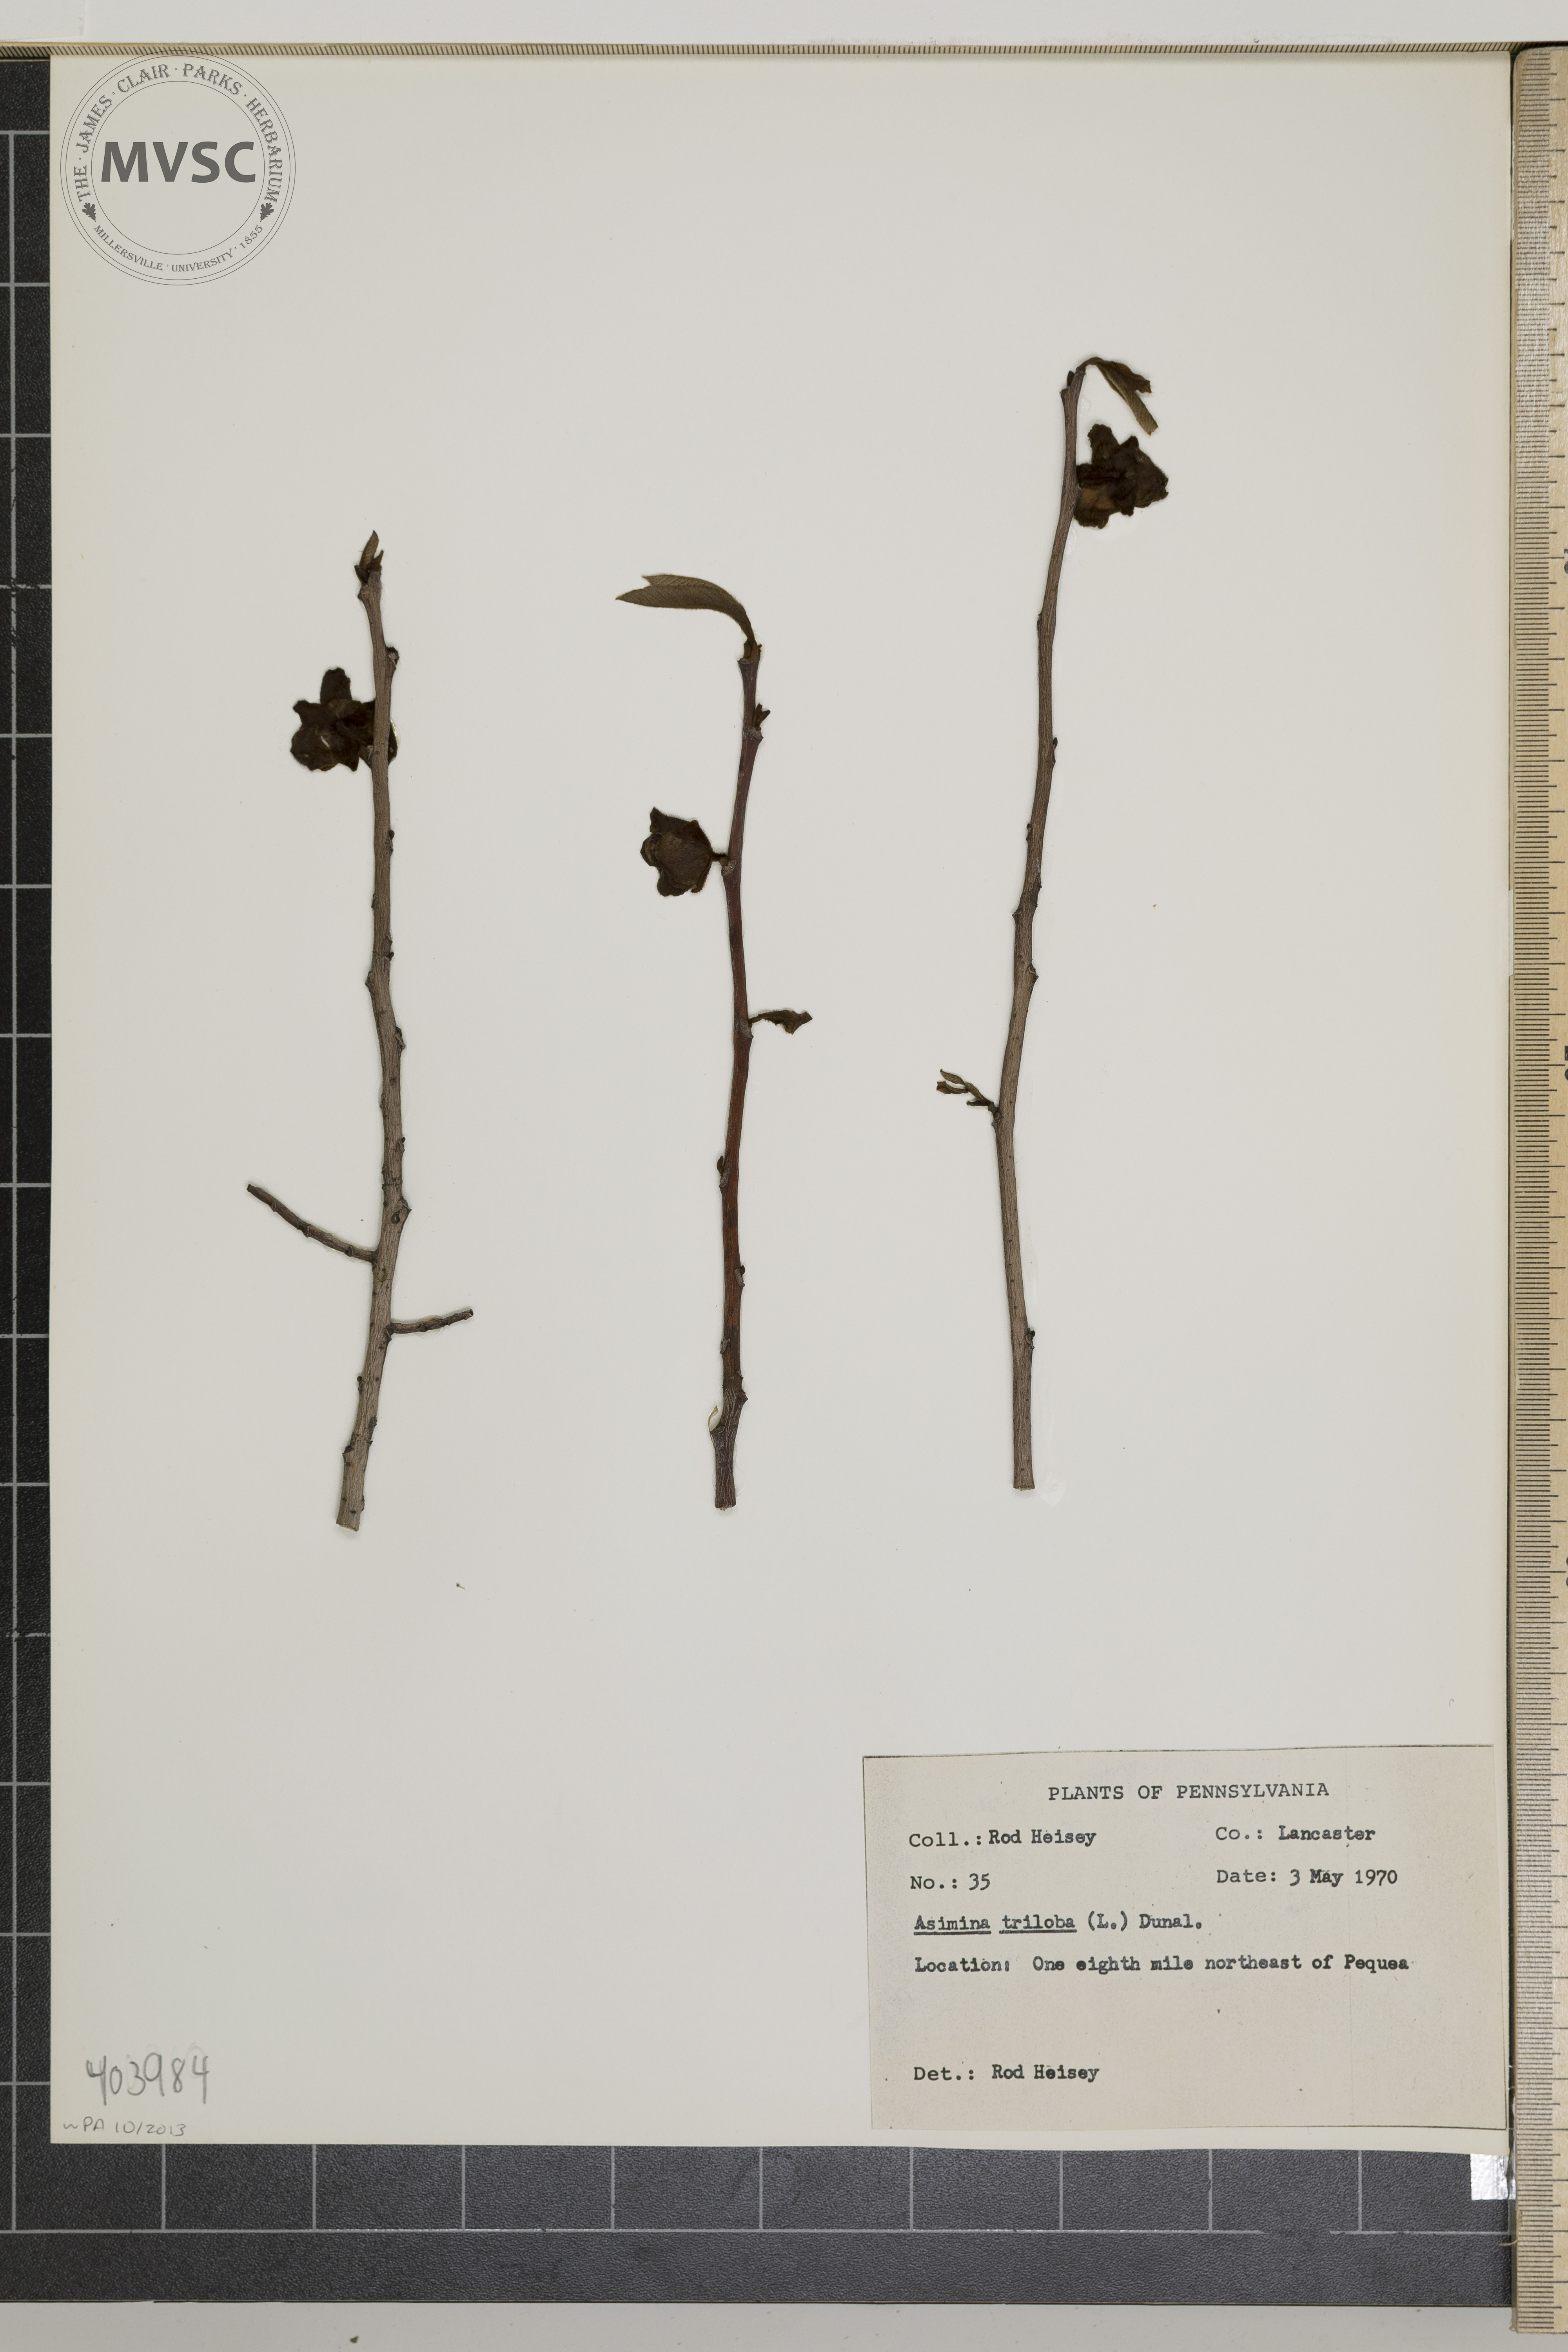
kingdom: Plantae
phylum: Tracheophyta
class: Magnoliopsida
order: Magnoliales
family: Annonaceae
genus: Asimina
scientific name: Asimina triloba
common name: Dog-banana
